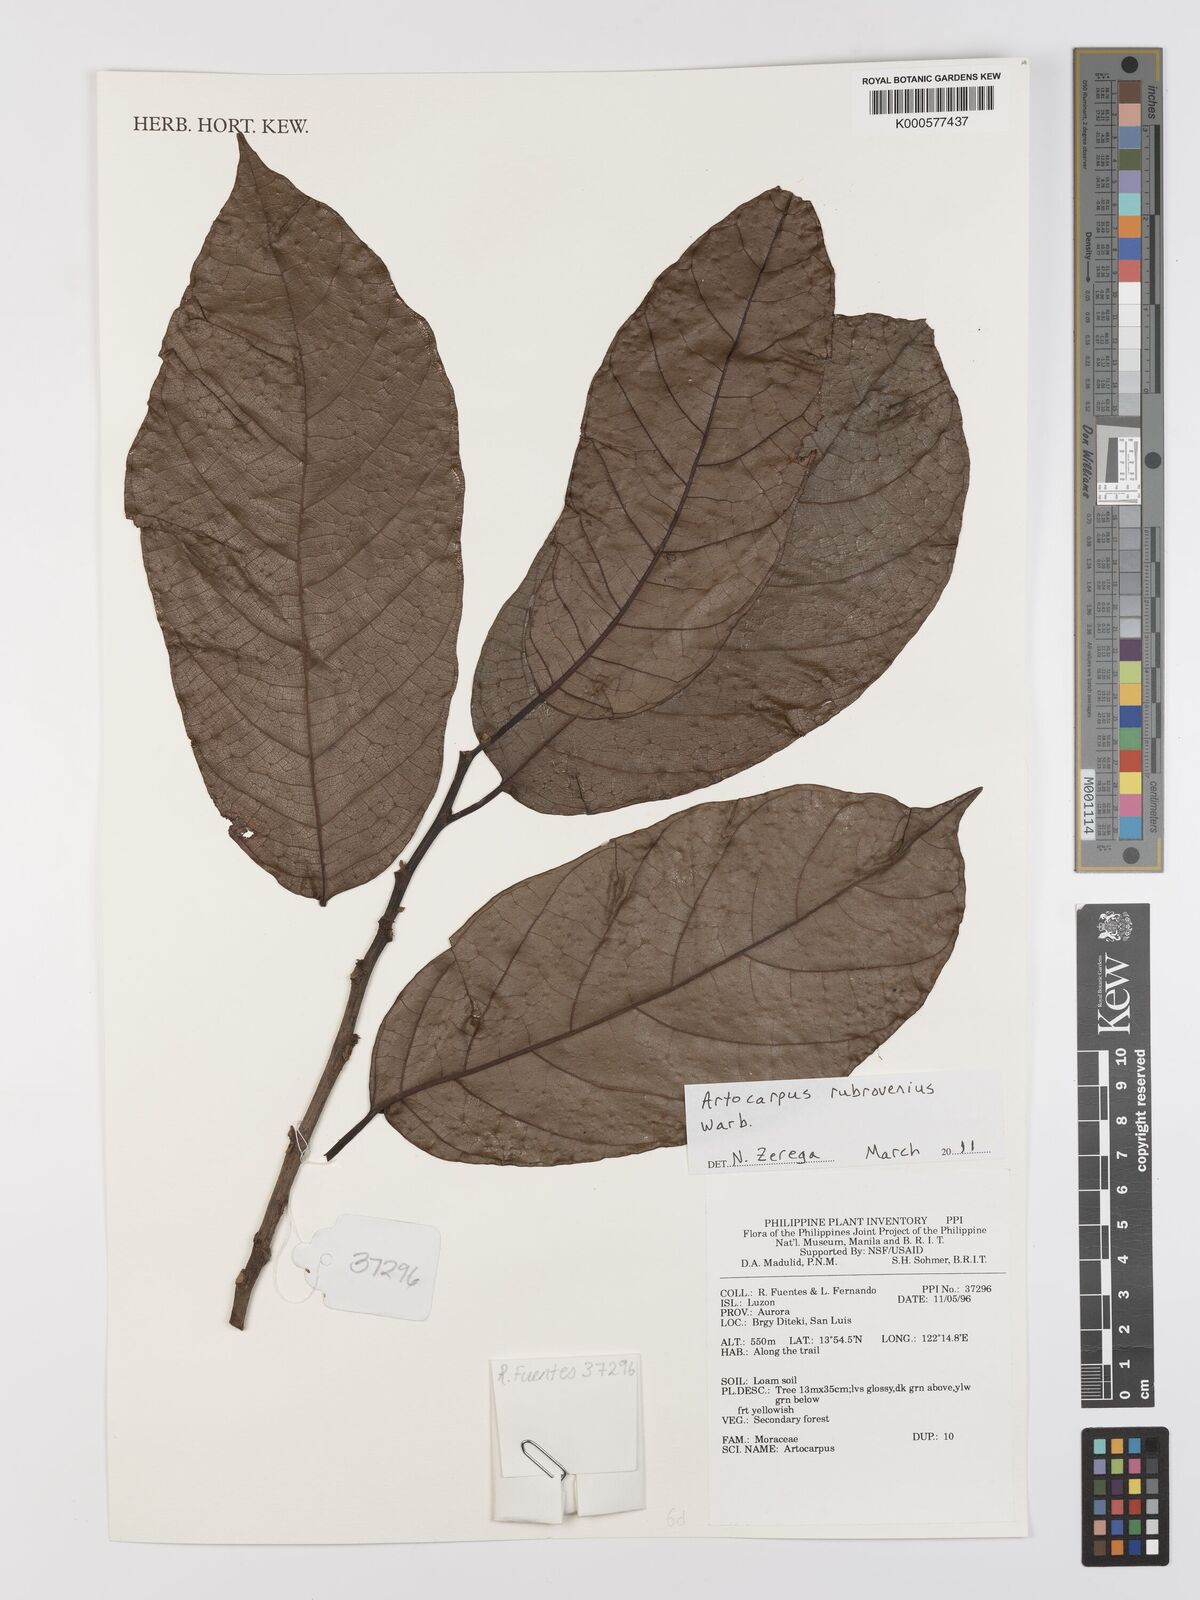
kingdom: Plantae
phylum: Tracheophyta
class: Magnoliopsida
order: Rosales
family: Moraceae
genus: Artocarpus
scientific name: Artocarpus rubrovenius
